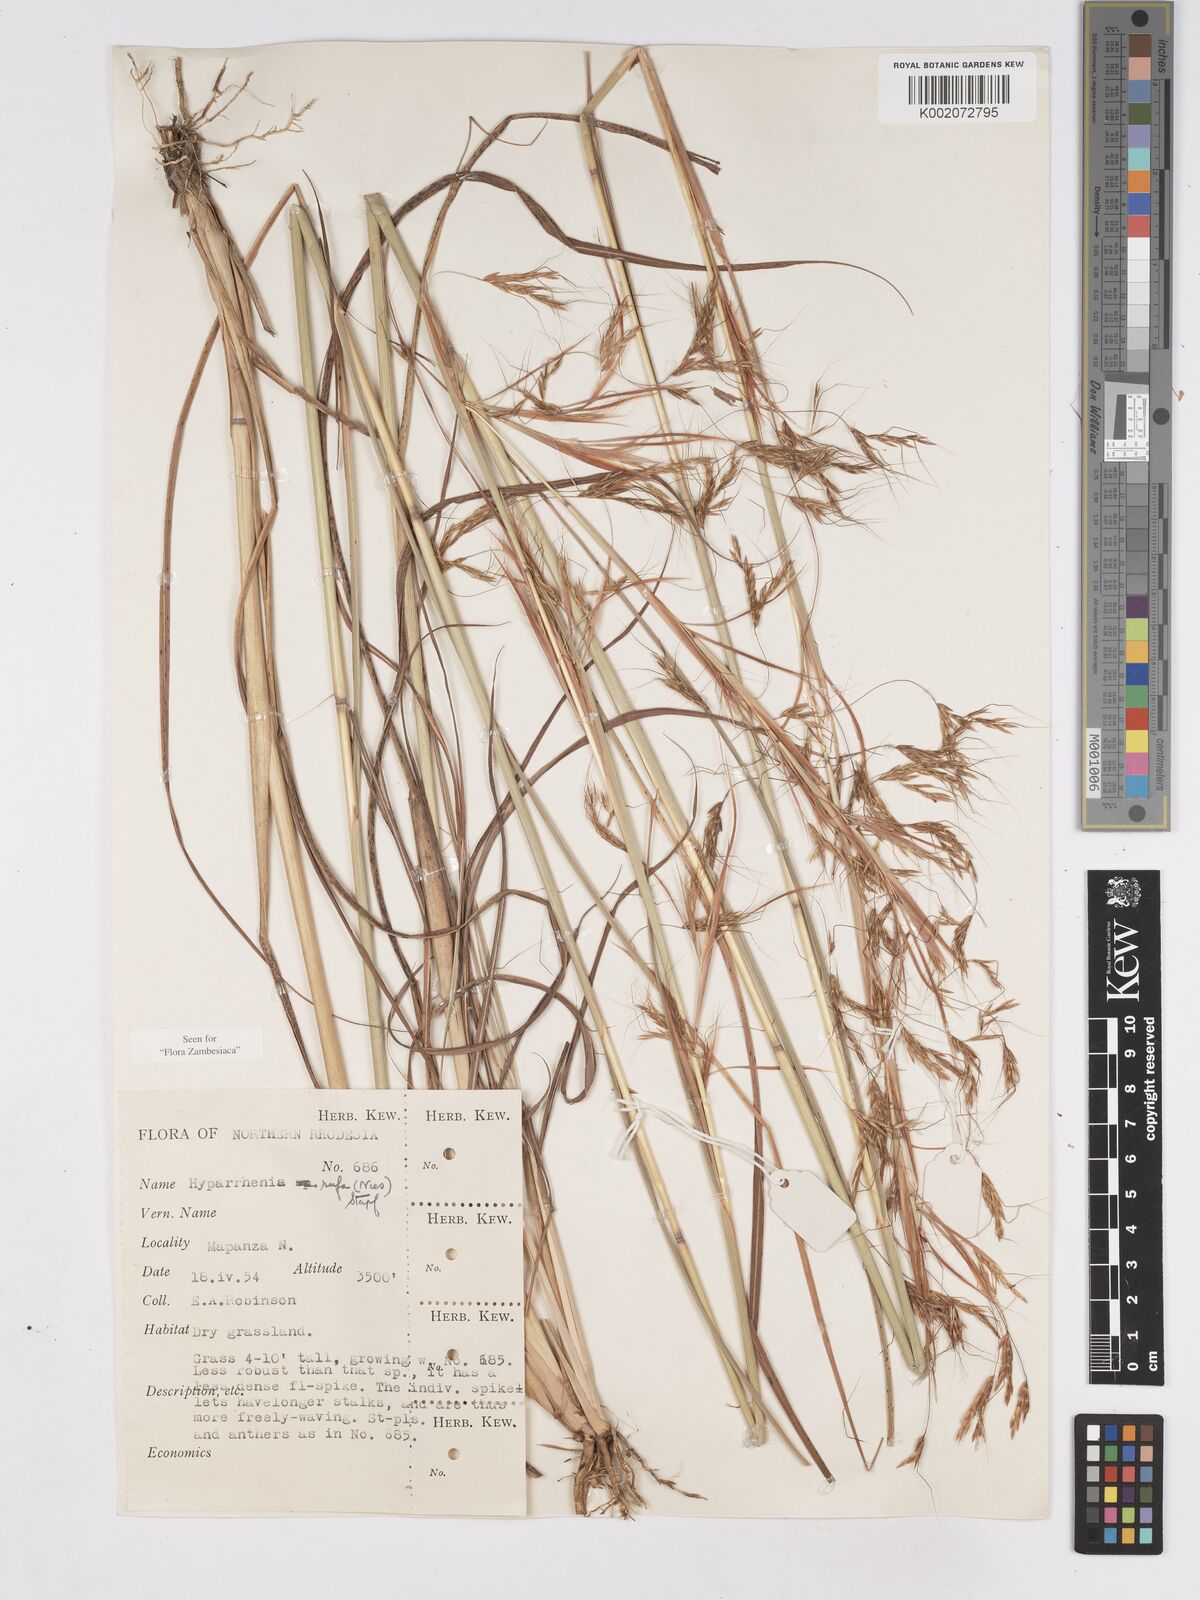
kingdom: Plantae
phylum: Tracheophyta
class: Liliopsida
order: Poales
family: Poaceae
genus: Hyparrhenia
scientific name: Hyparrhenia rufa
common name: Jaraguagrass
